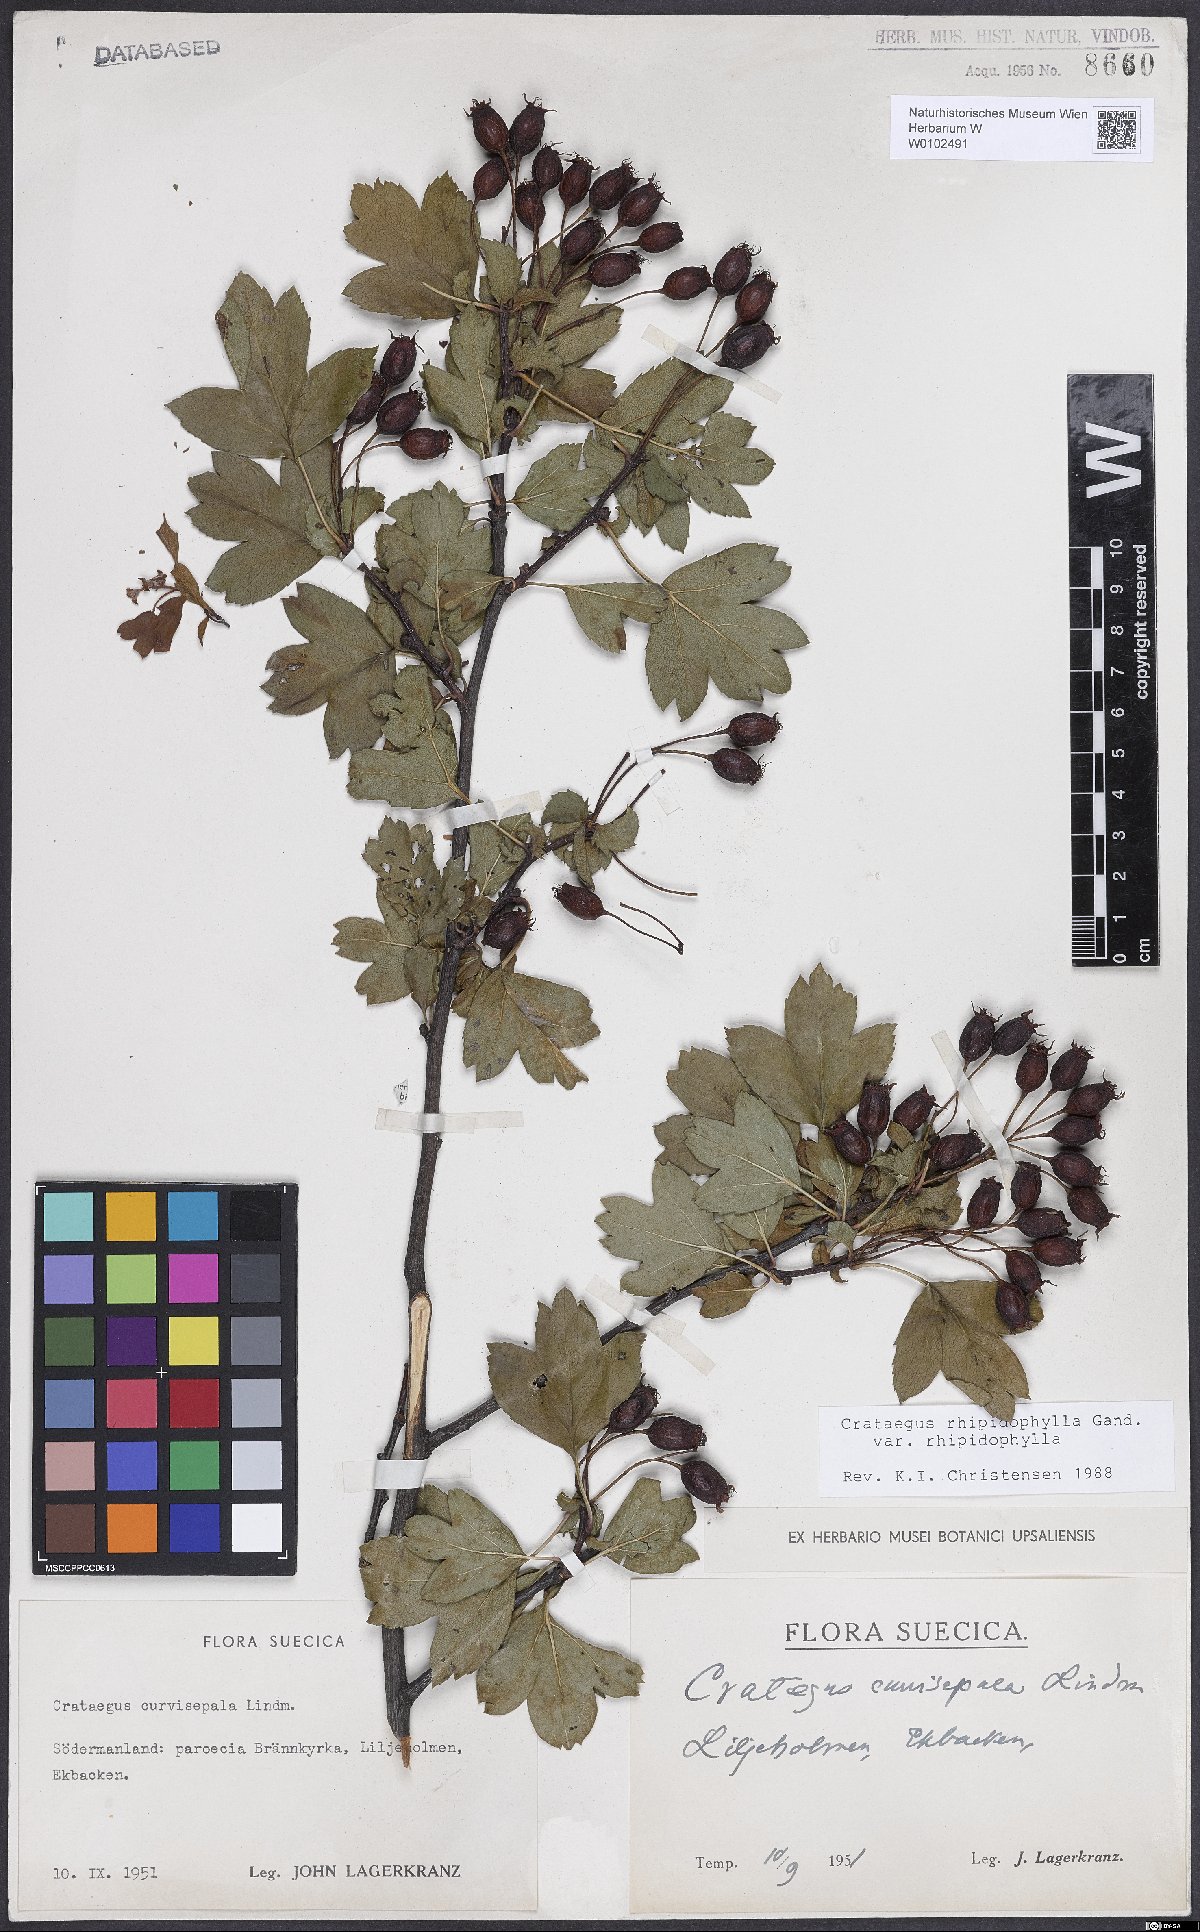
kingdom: Plantae
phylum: Tracheophyta
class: Magnoliopsida
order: Rosales
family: Rosaceae
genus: Crataegus
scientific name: Crataegus rhipidophylla
